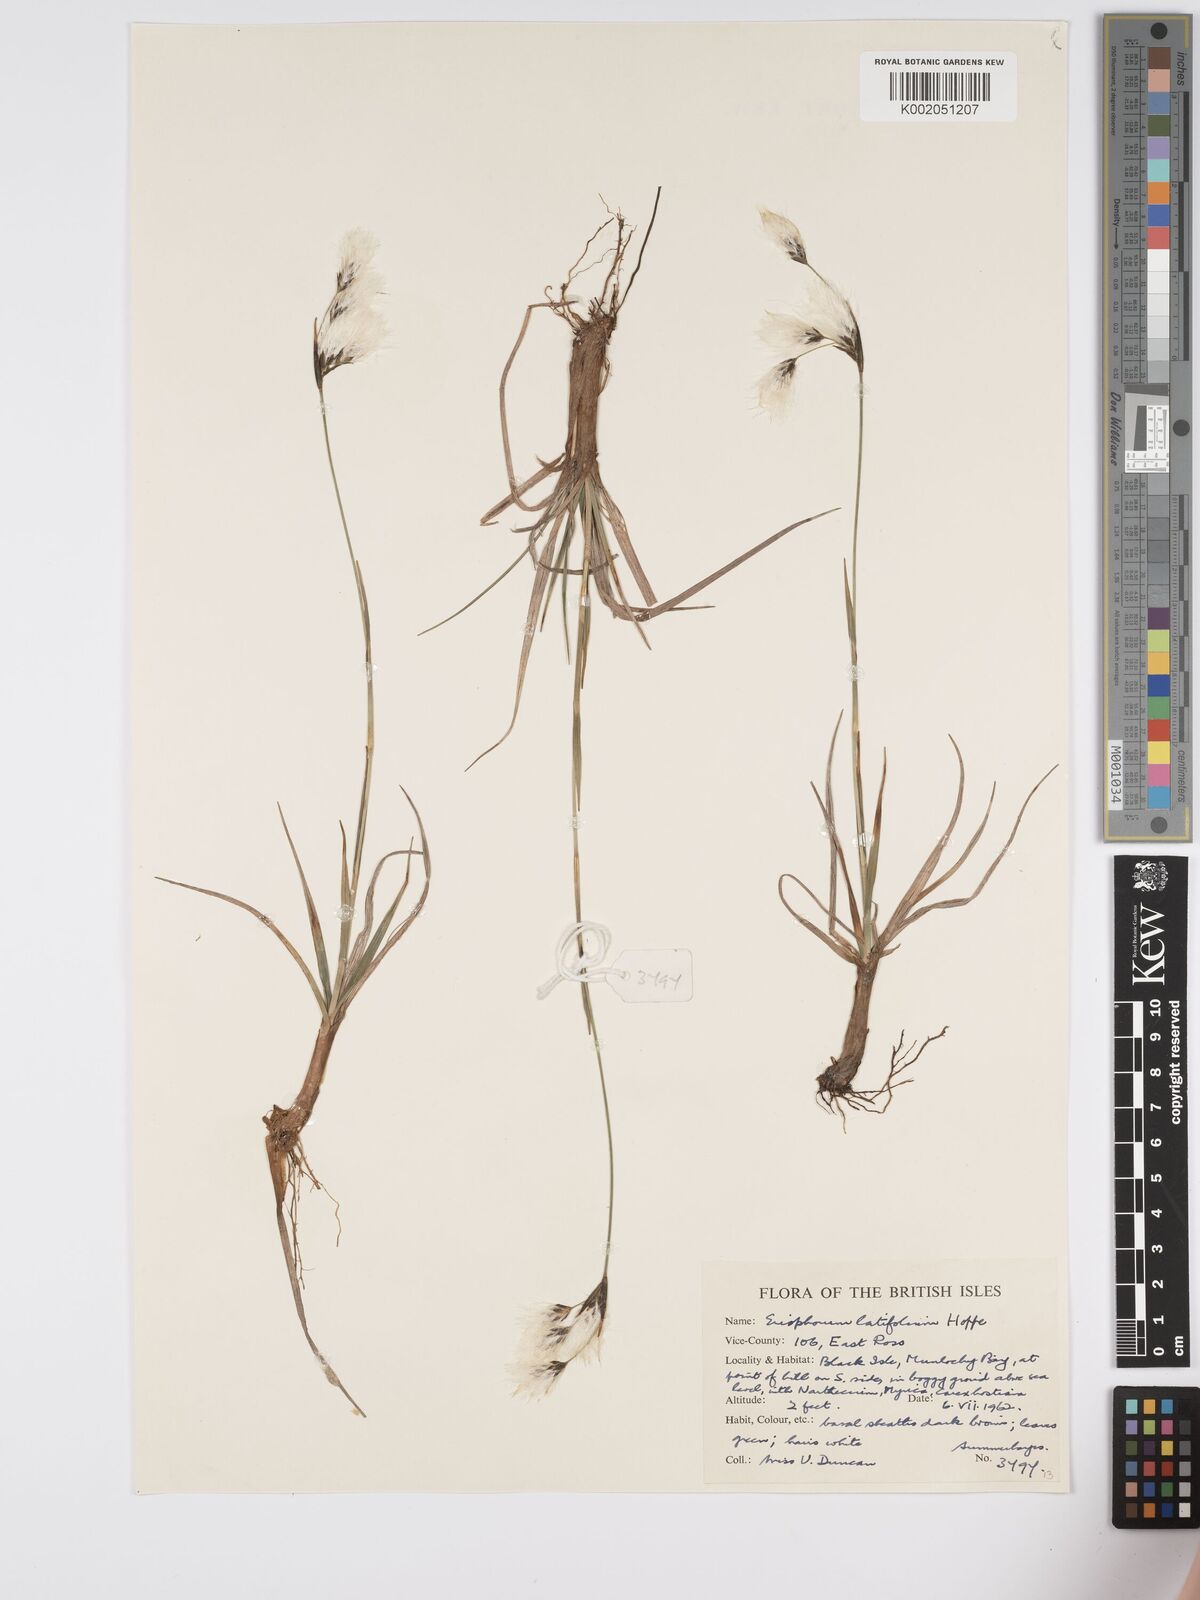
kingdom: Plantae
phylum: Tracheophyta
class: Liliopsida
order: Poales
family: Cyperaceae
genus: Eriophorum
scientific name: Eriophorum latifolium
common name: Broad-leaved cottongrass
